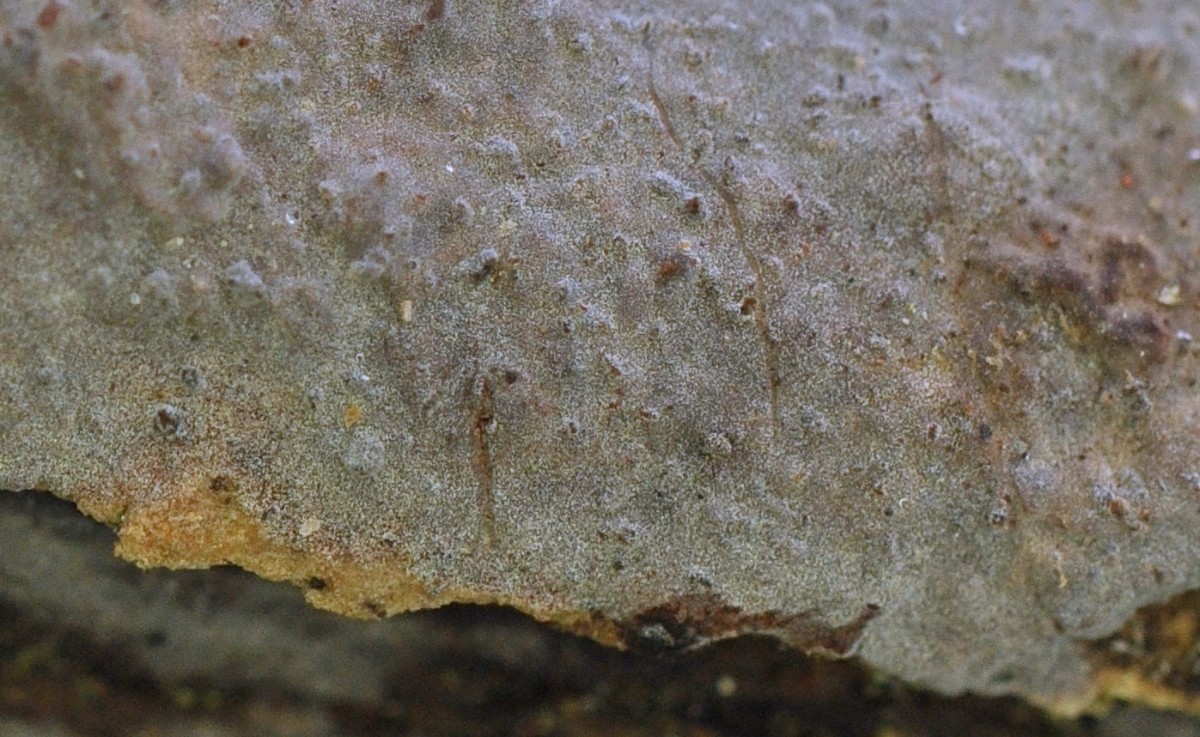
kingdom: Fungi
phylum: Basidiomycota
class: Agaricomycetes
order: Russulales
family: Peniophoraceae
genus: Peniophora
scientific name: Peniophora lycii
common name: grynet voksskind
